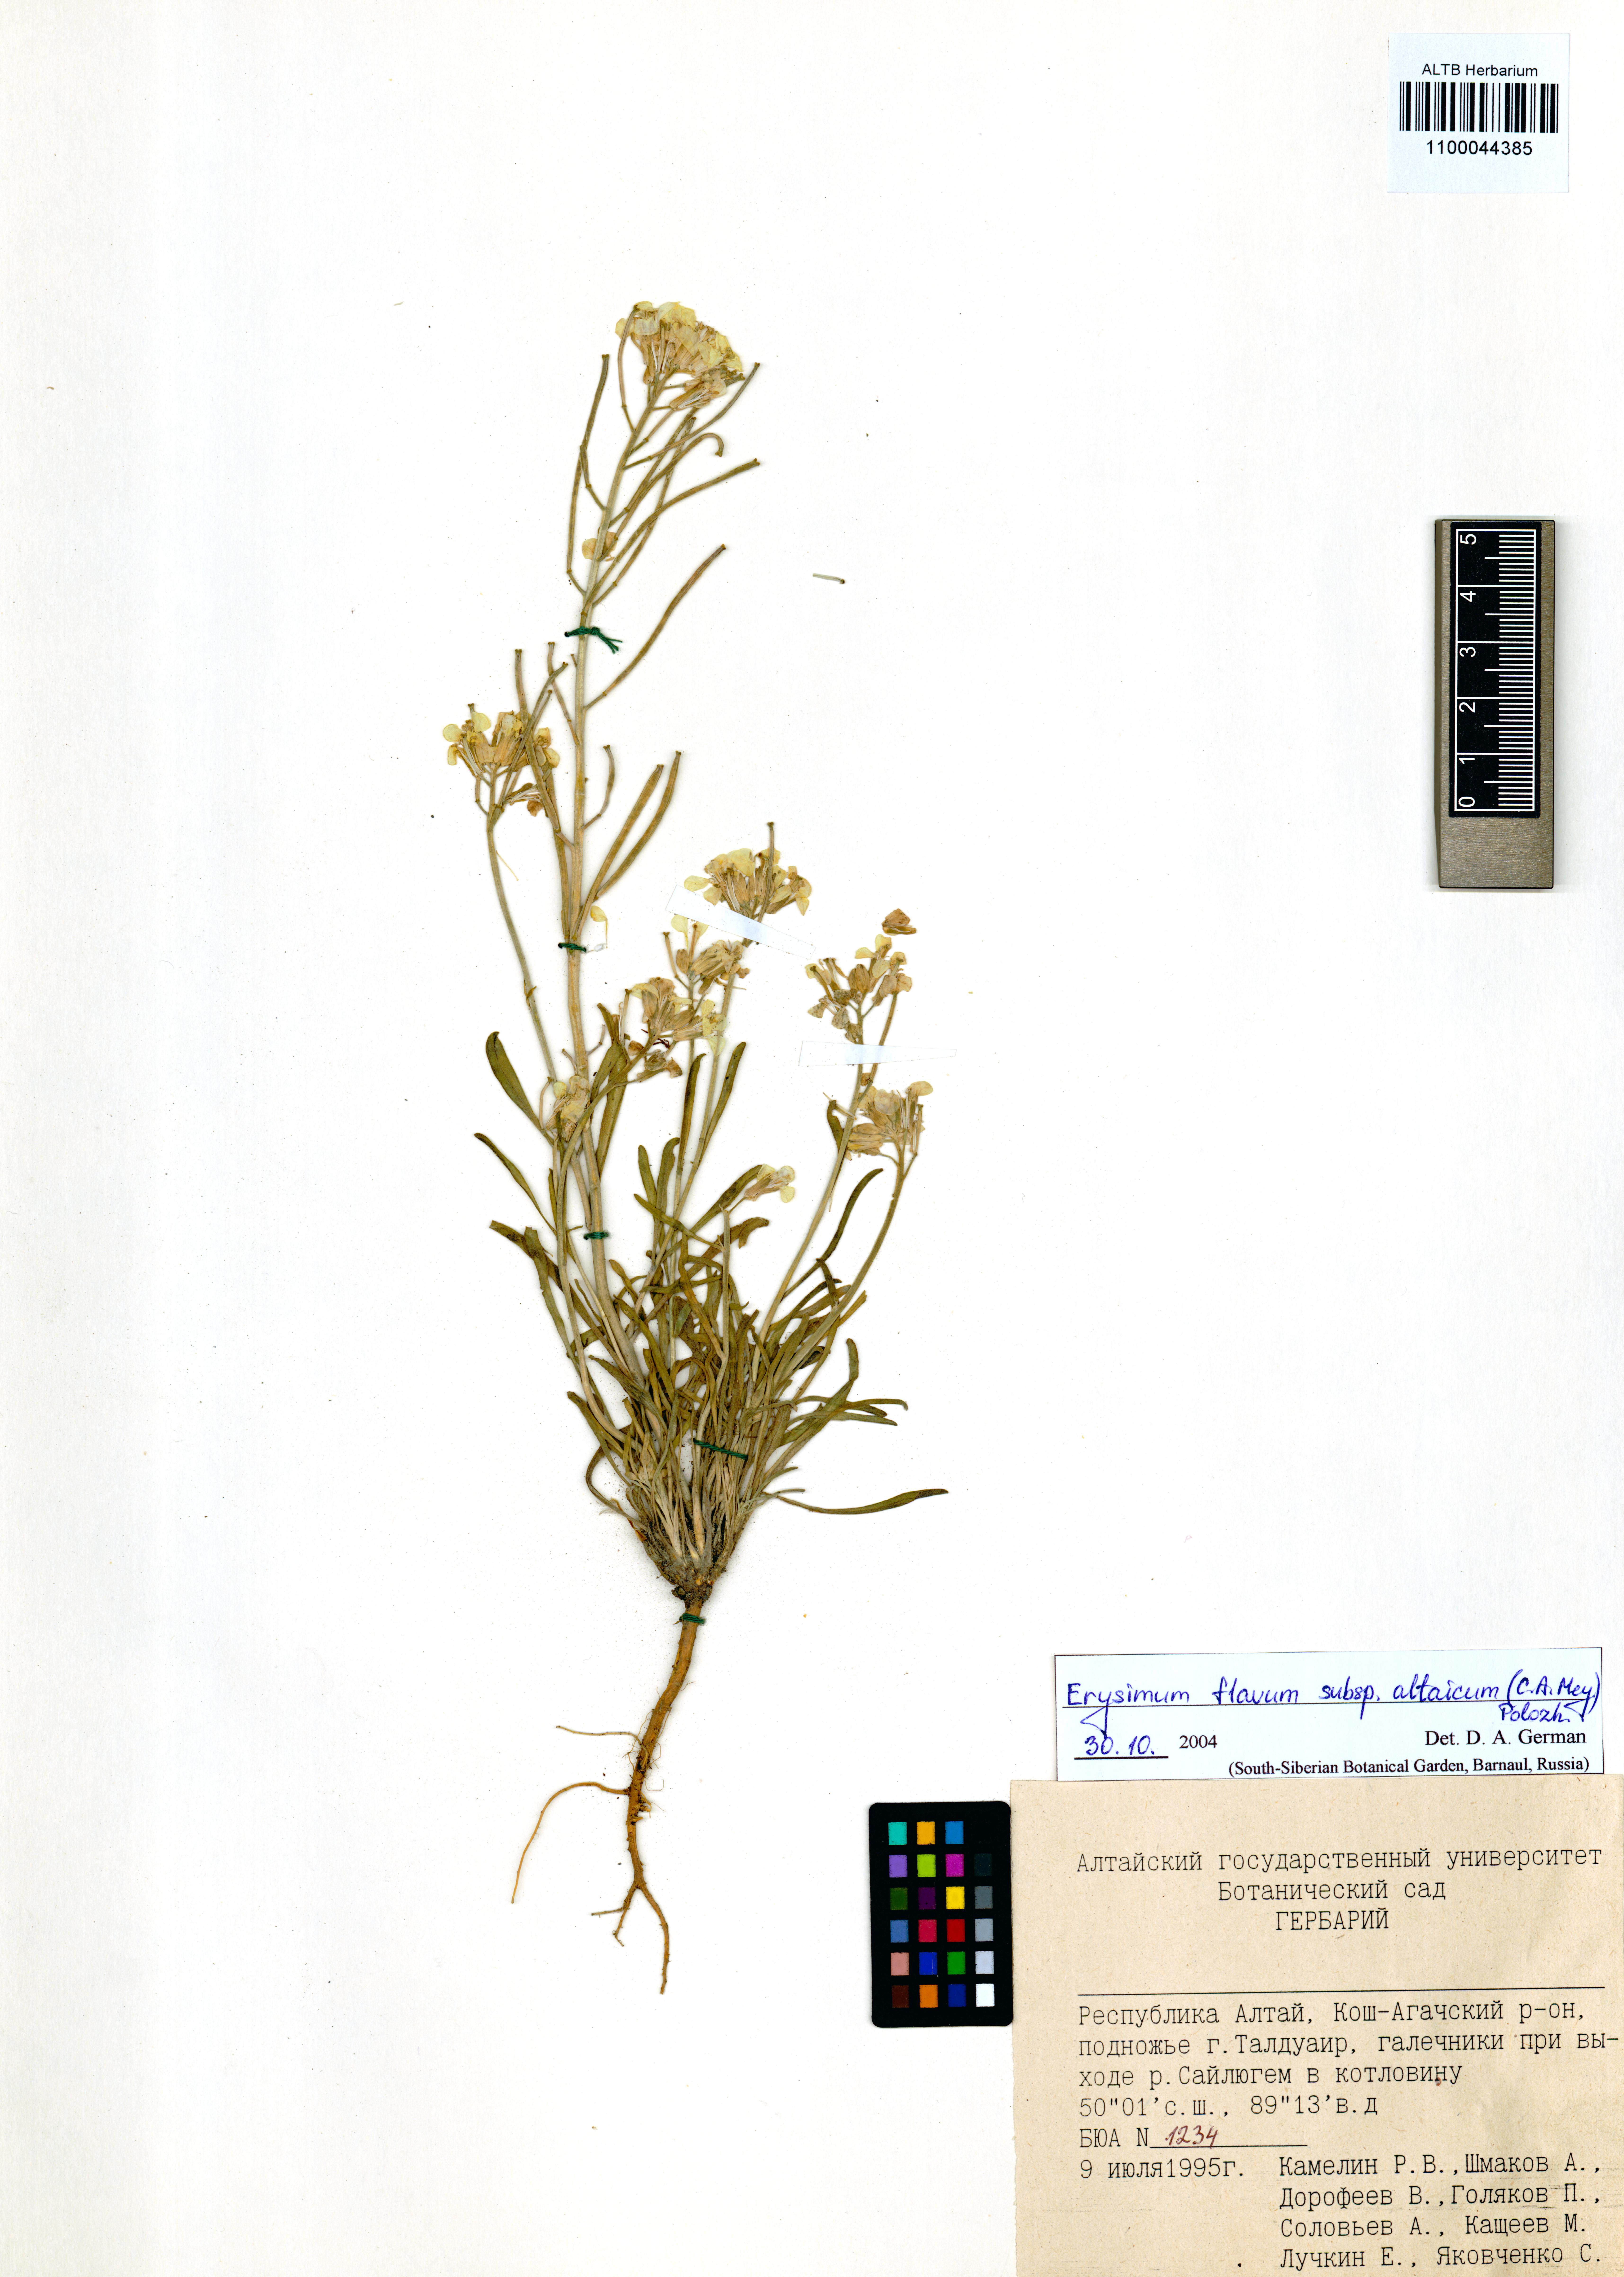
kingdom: Plantae
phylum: Tracheophyta
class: Magnoliopsida
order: Brassicales
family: Brassicaceae
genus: Erysimum
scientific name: Erysimum flavum
